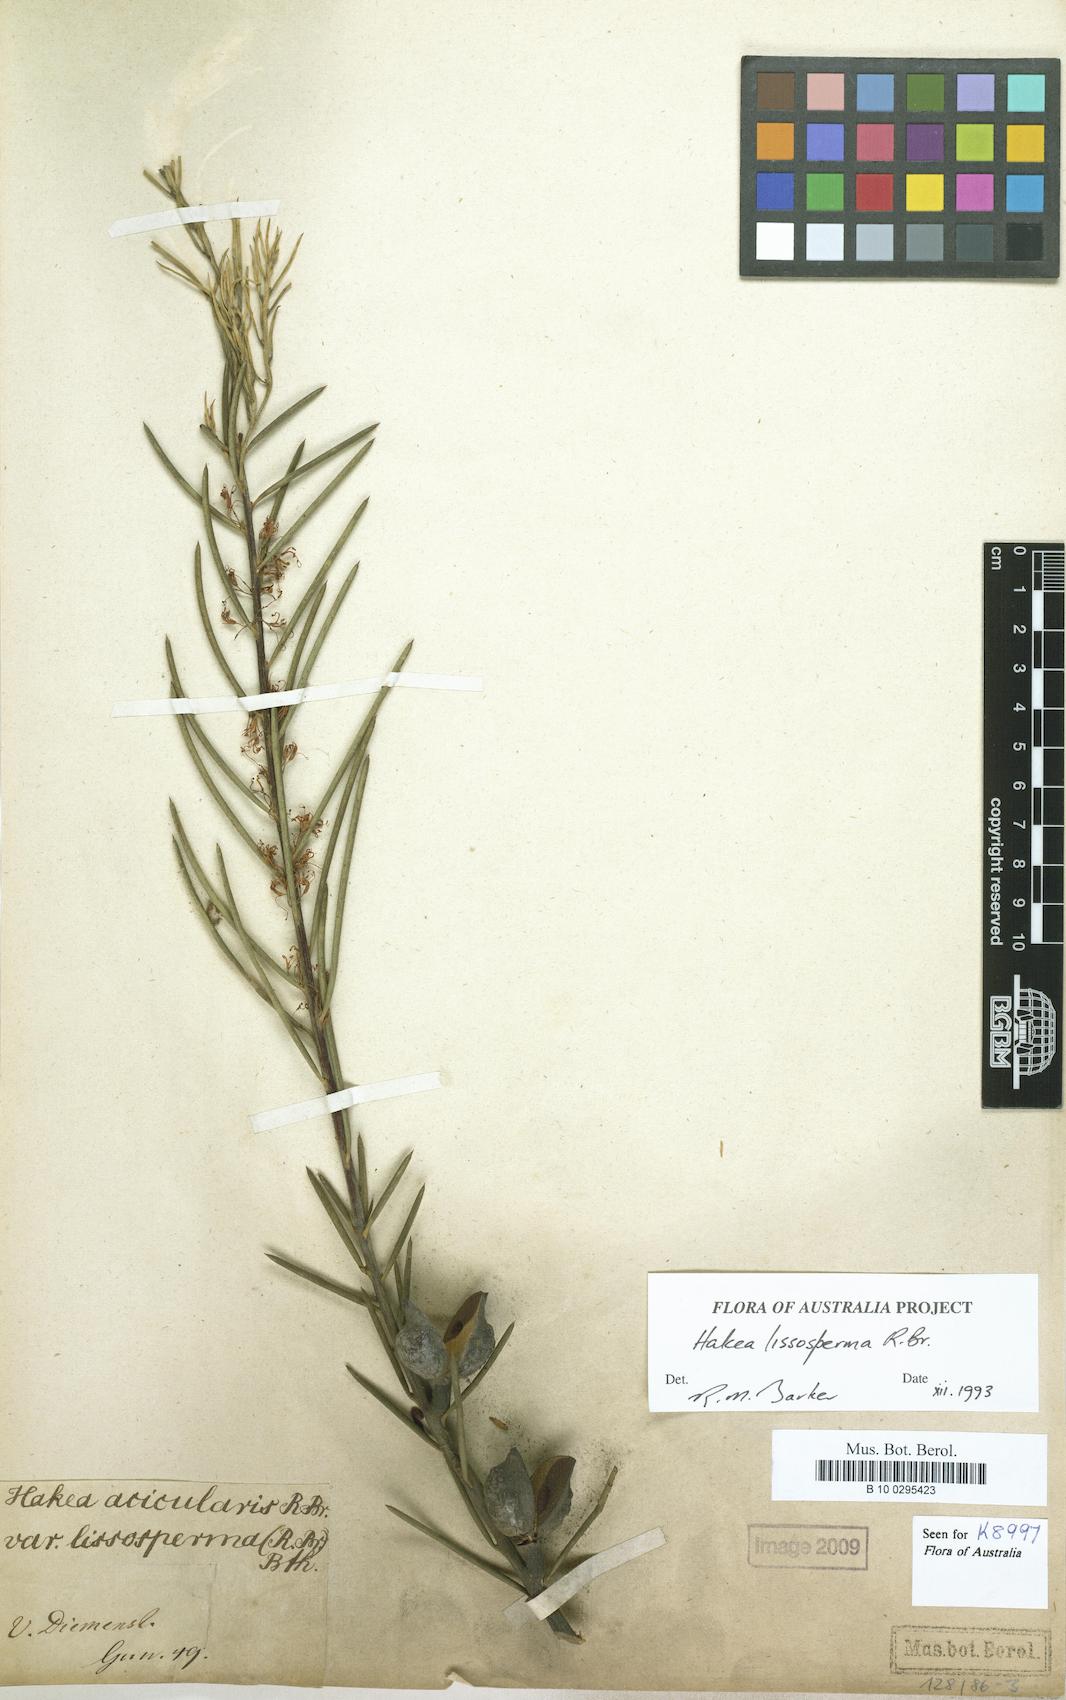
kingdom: Plantae
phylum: Tracheophyta
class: Magnoliopsida
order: Proteales
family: Proteaceae
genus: Hakea
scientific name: Hakea lissosperma
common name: Mountain needlewood
